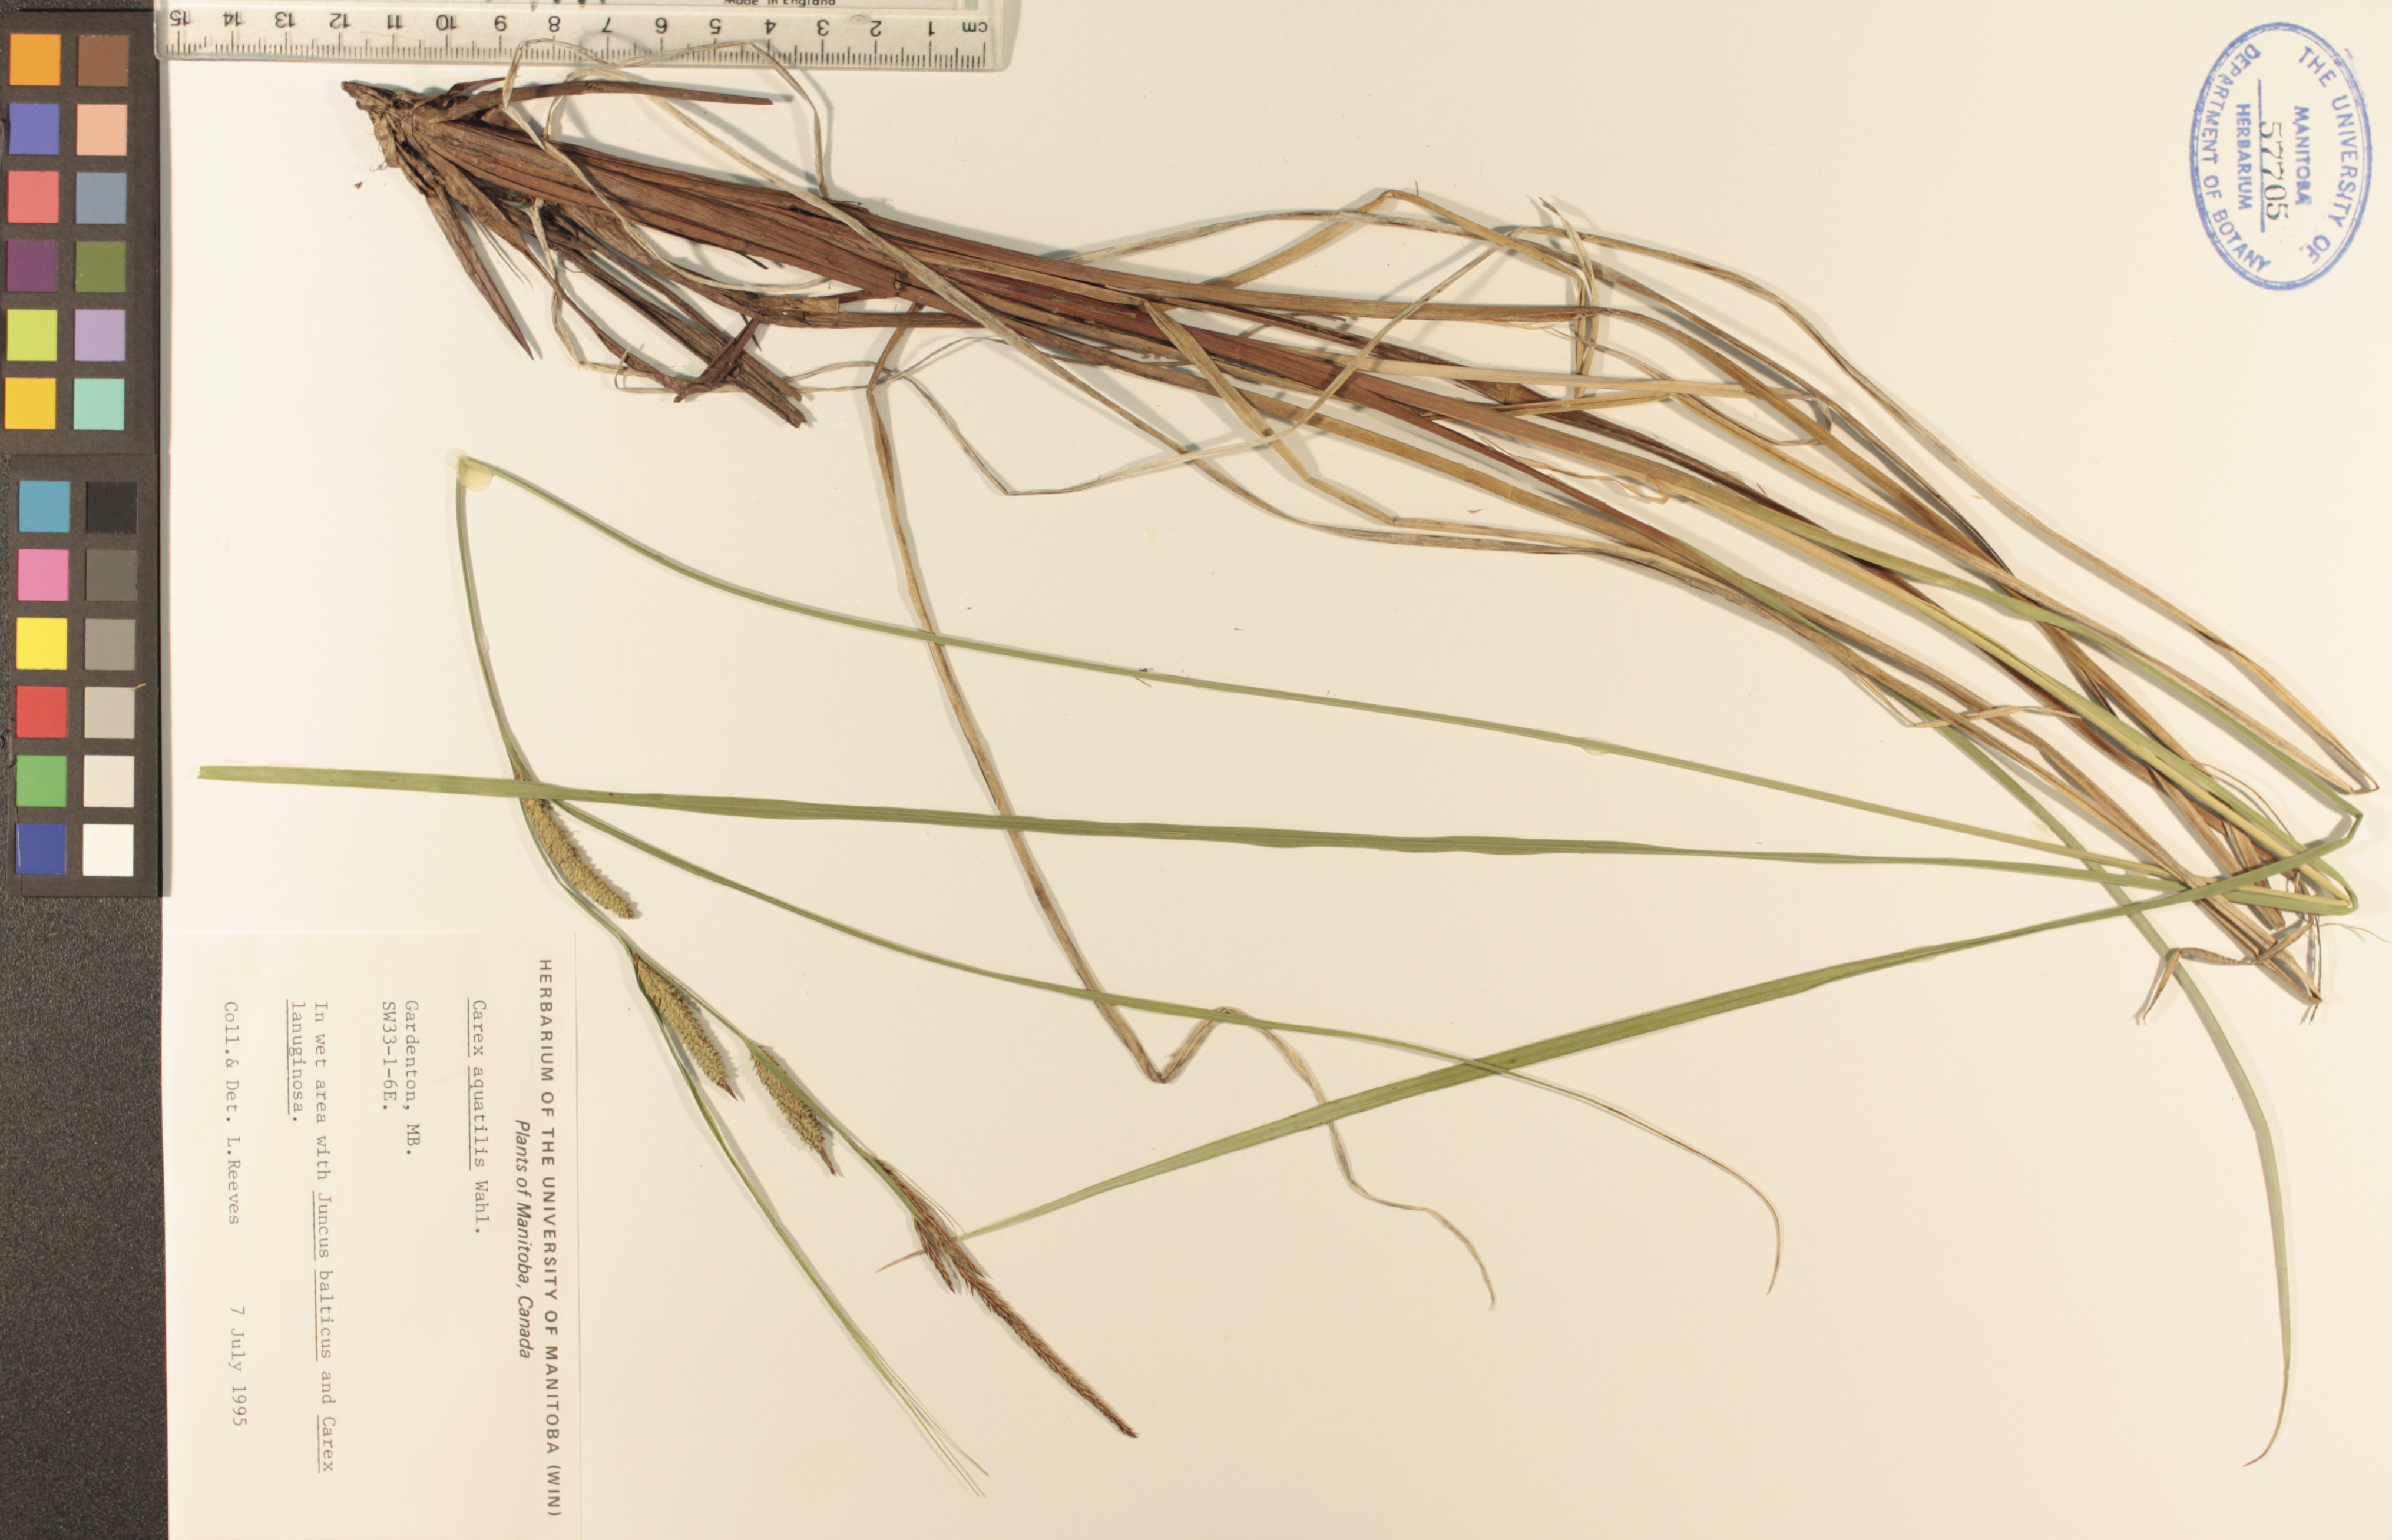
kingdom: Plantae
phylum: Tracheophyta
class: Liliopsida
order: Poales
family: Cyperaceae
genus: Carex
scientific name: Carex aquatilis
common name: Water sedge
